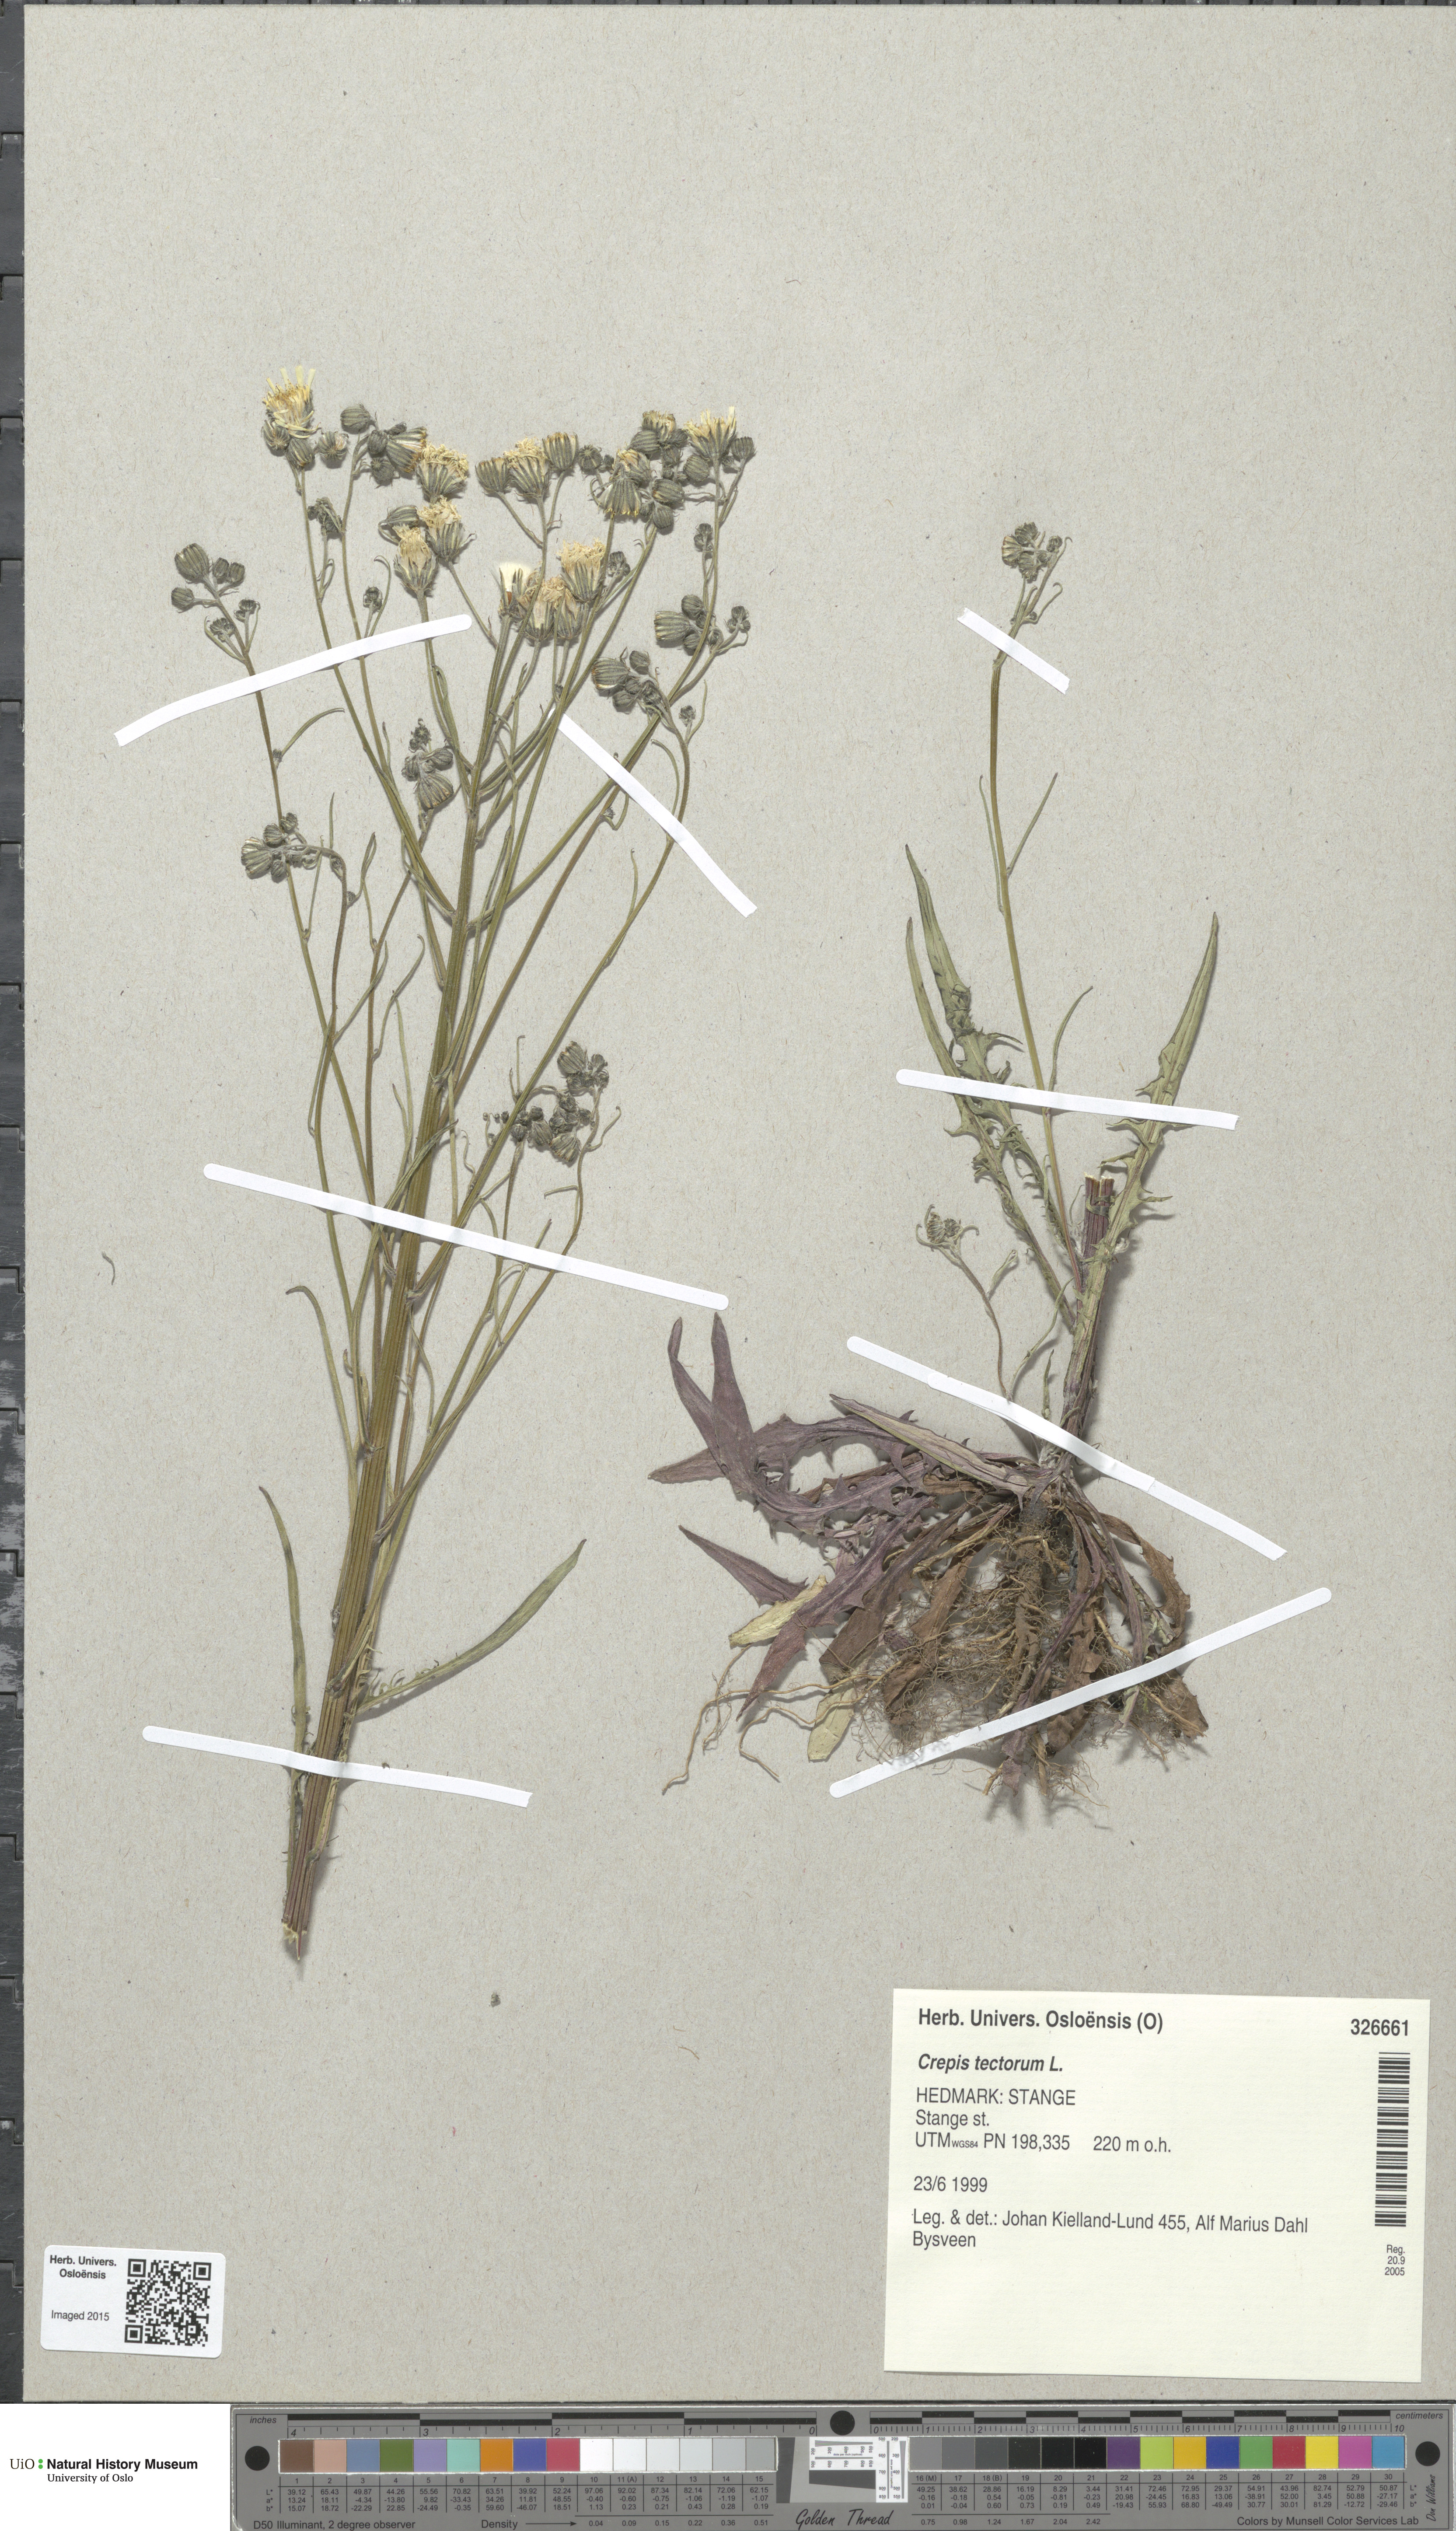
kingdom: Plantae
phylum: Tracheophyta
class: Magnoliopsida
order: Asterales
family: Asteraceae
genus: Crepis
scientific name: Crepis tectorum
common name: Narrow-leaved hawk's-beard
